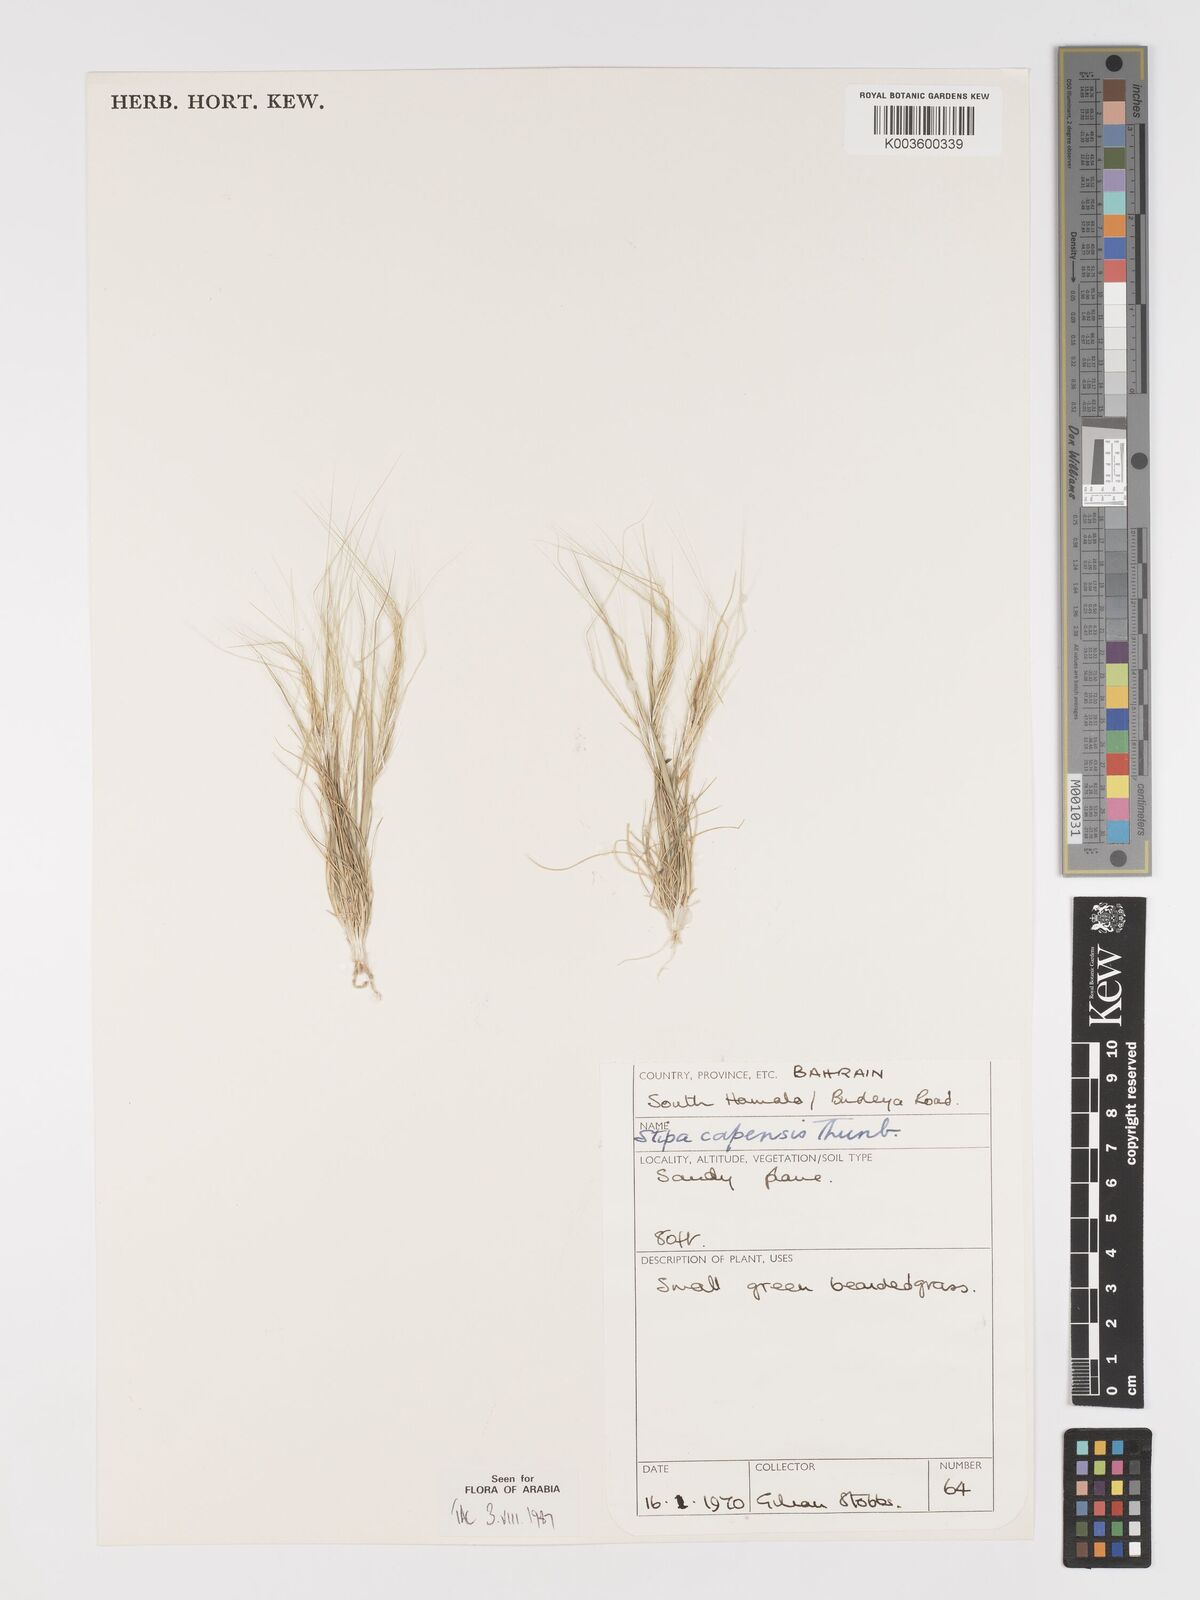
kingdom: Plantae
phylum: Tracheophyta
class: Liliopsida
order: Poales
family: Poaceae
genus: Stipellula
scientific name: Stipellula capensis
